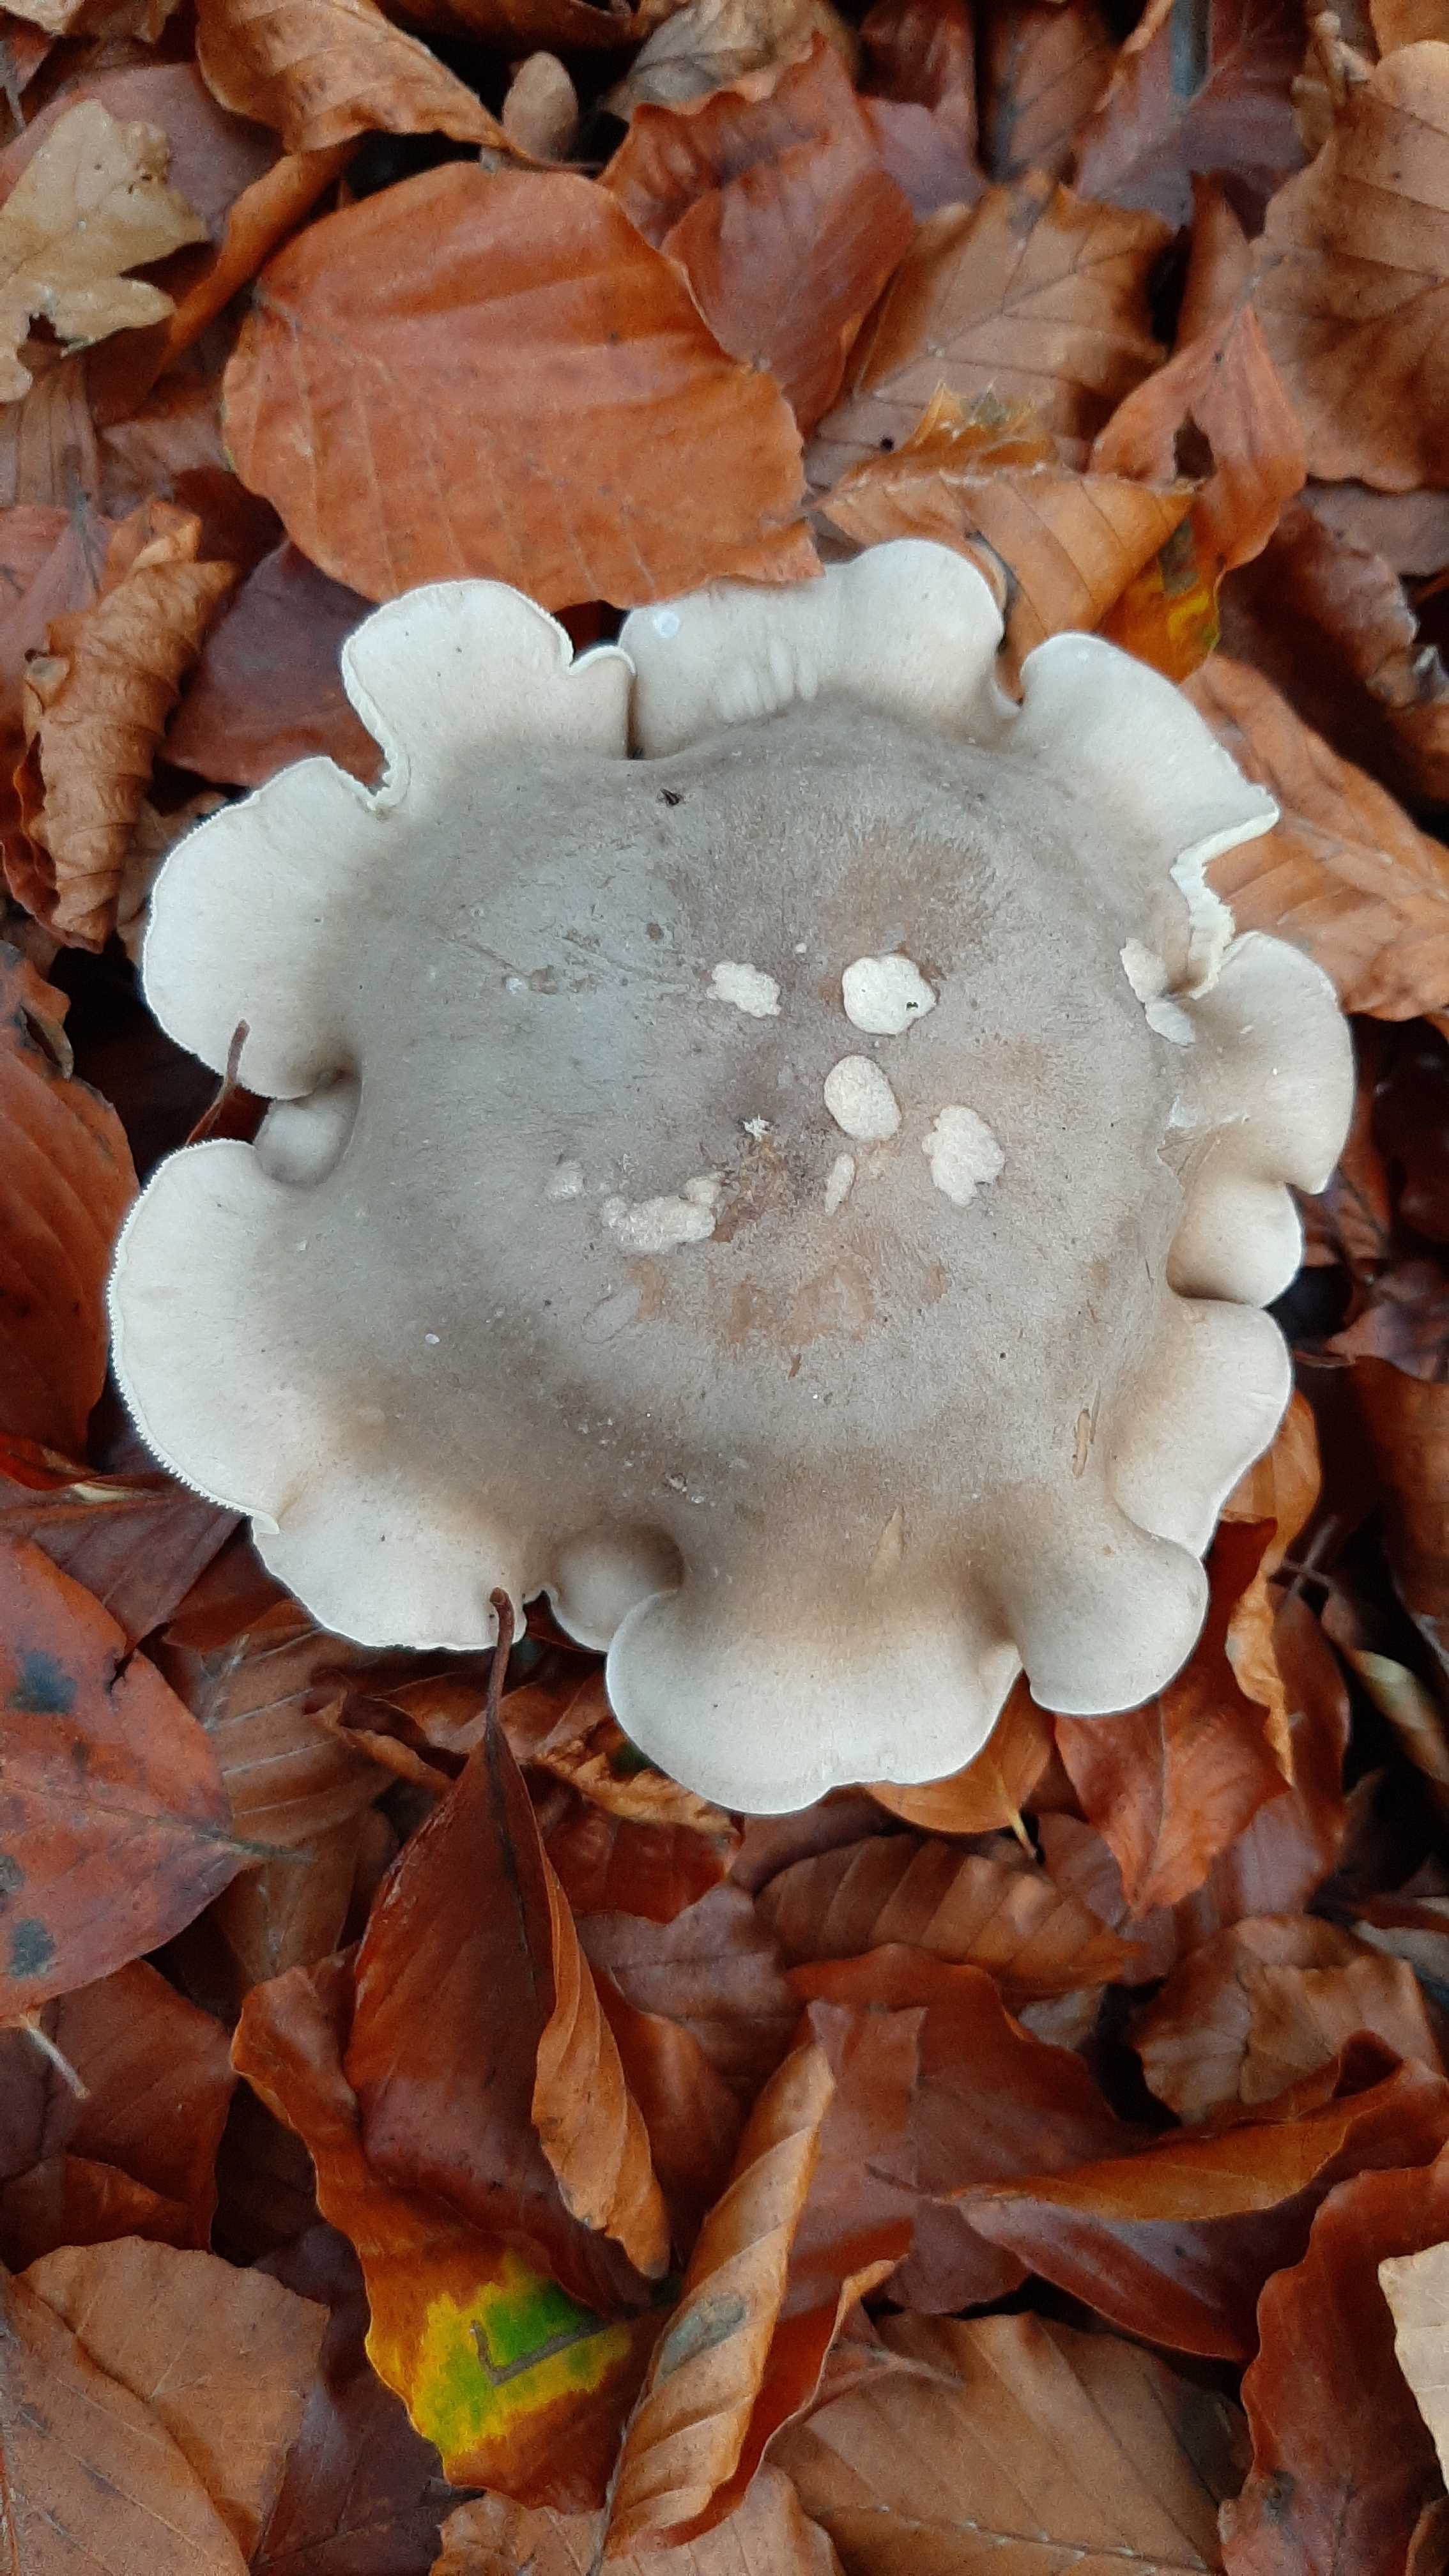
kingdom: Fungi
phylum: Basidiomycota
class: Agaricomycetes
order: Agaricales
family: Tricholomataceae
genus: Clitocybe
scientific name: Clitocybe nebularis
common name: tåge-tragthat
